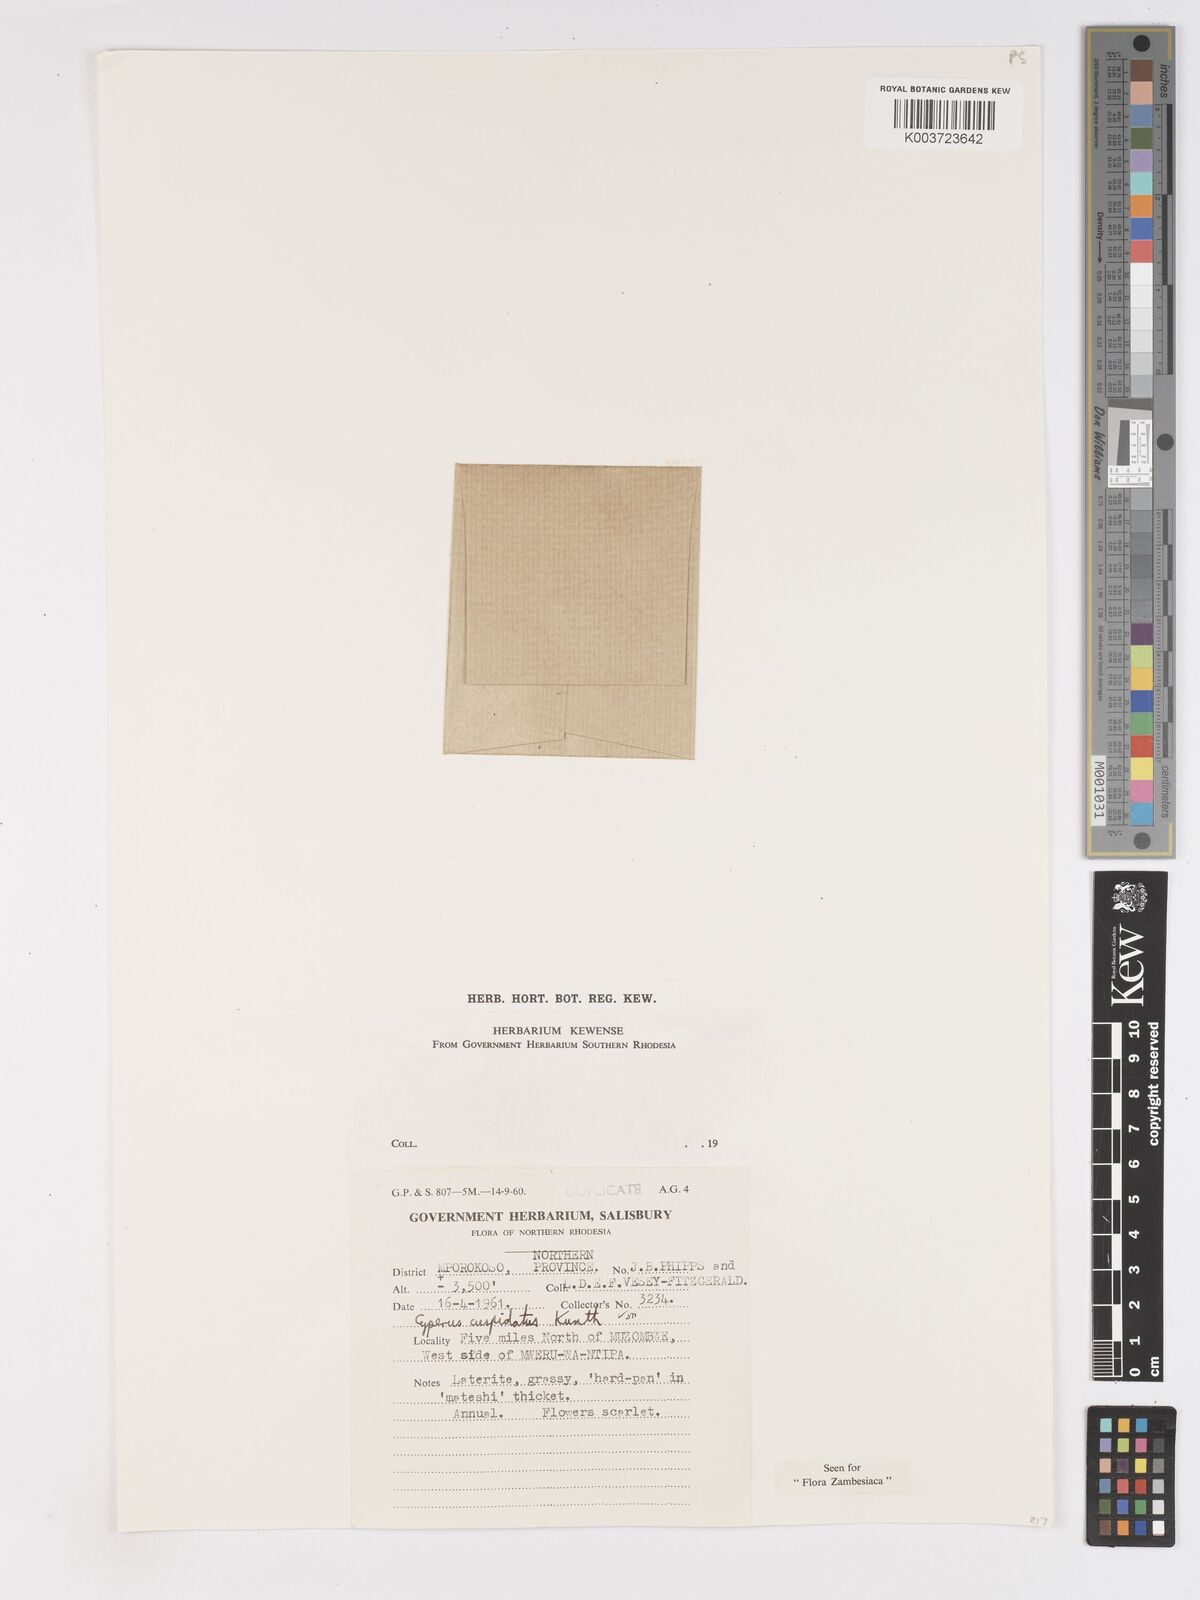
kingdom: Plantae
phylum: Tracheophyta
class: Liliopsida
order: Poales
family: Cyperaceae
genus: Cyperus
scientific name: Cyperus betafensis
